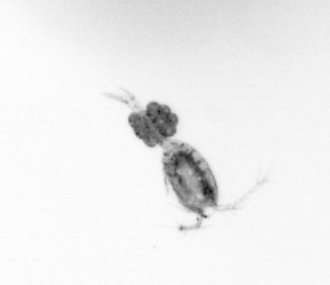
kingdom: Animalia
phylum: Arthropoda
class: Copepoda
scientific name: Copepoda
